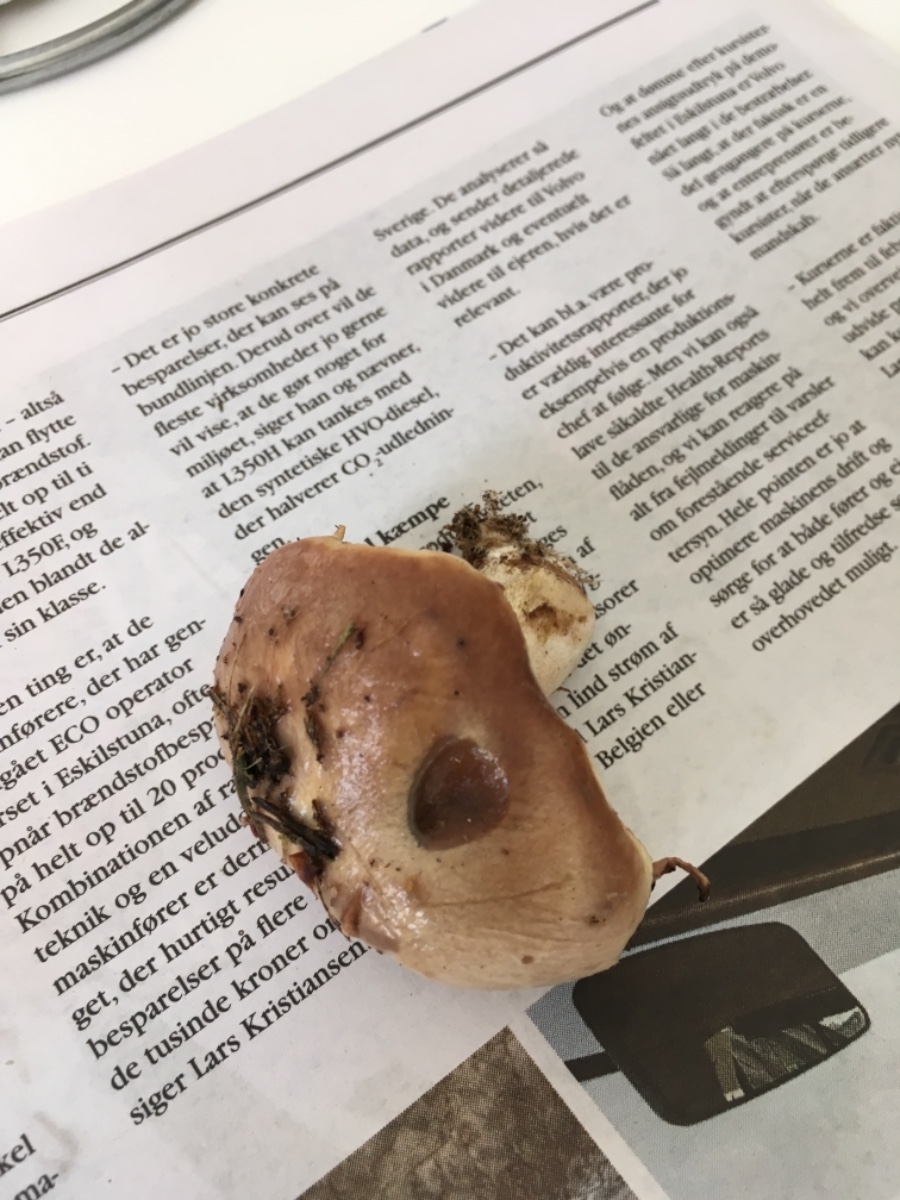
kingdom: Fungi
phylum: Basidiomycota
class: Agaricomycetes
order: Boletales
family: Suillaceae
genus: Suillus
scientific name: Suillus luteus
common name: brungul slimrørhat
